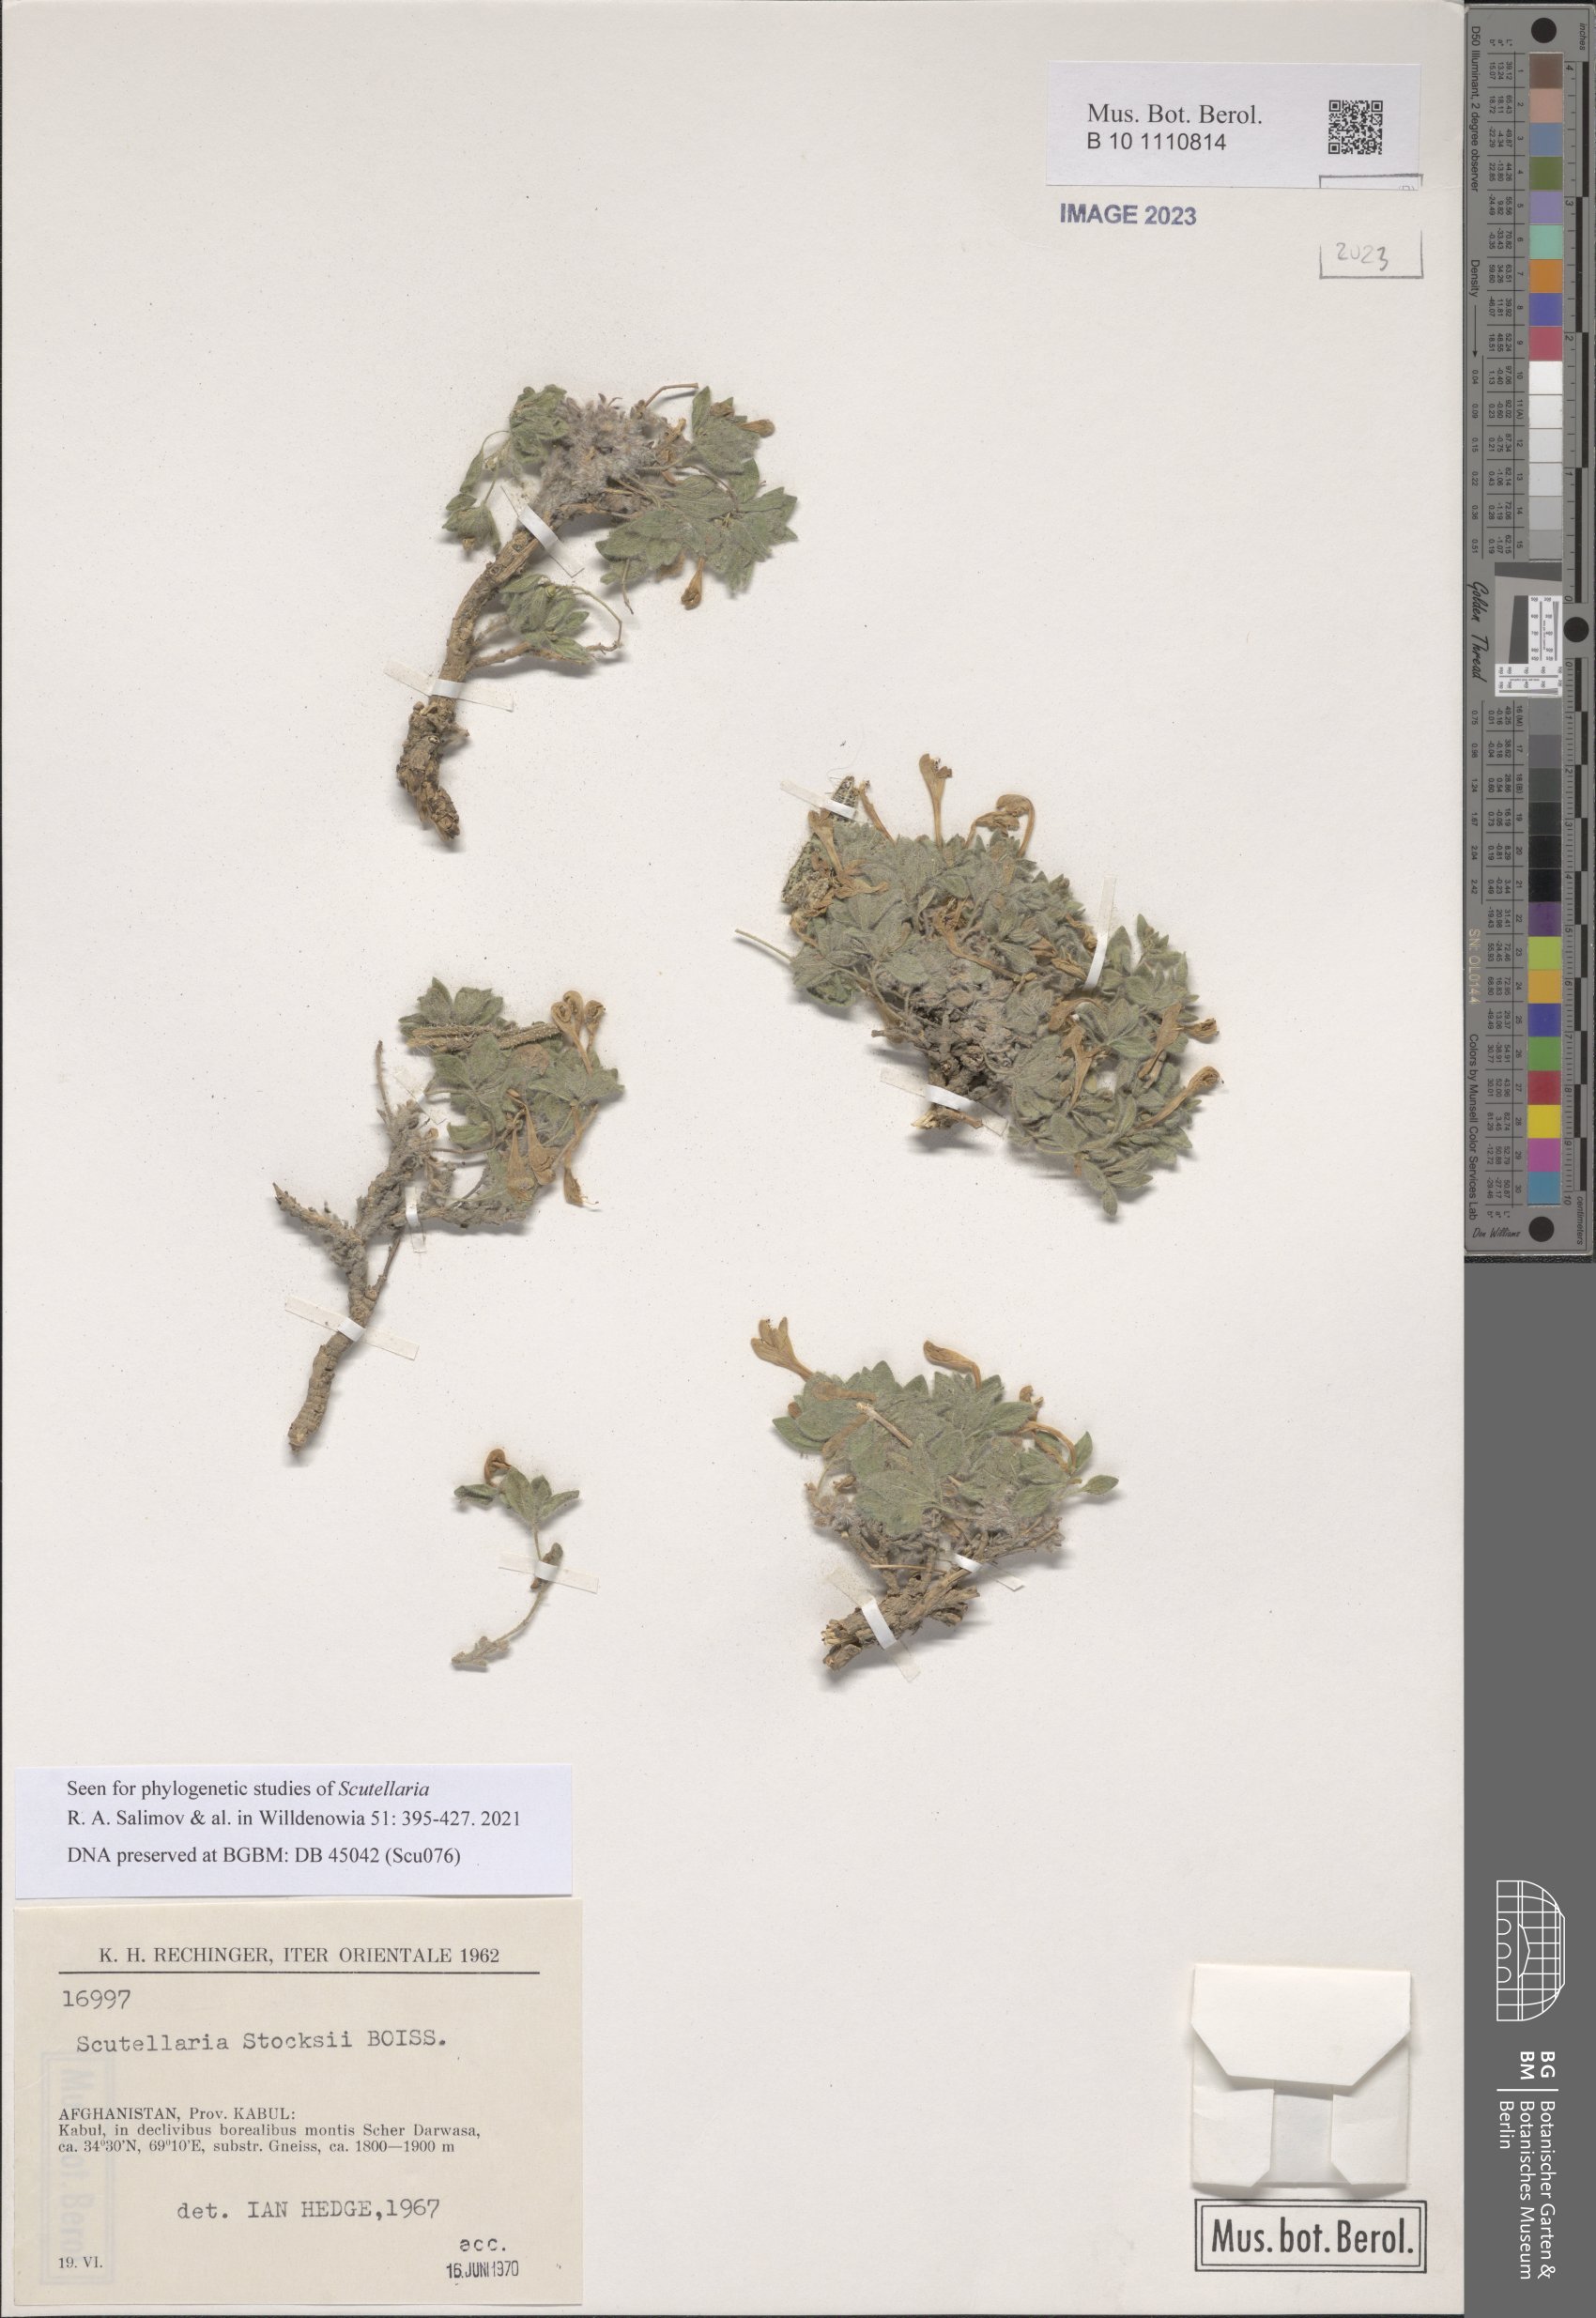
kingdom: Plantae
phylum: Tracheophyta
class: Magnoliopsida
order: Lamiales
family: Lamiaceae
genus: Scutellaria
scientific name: Scutellaria stocksii
